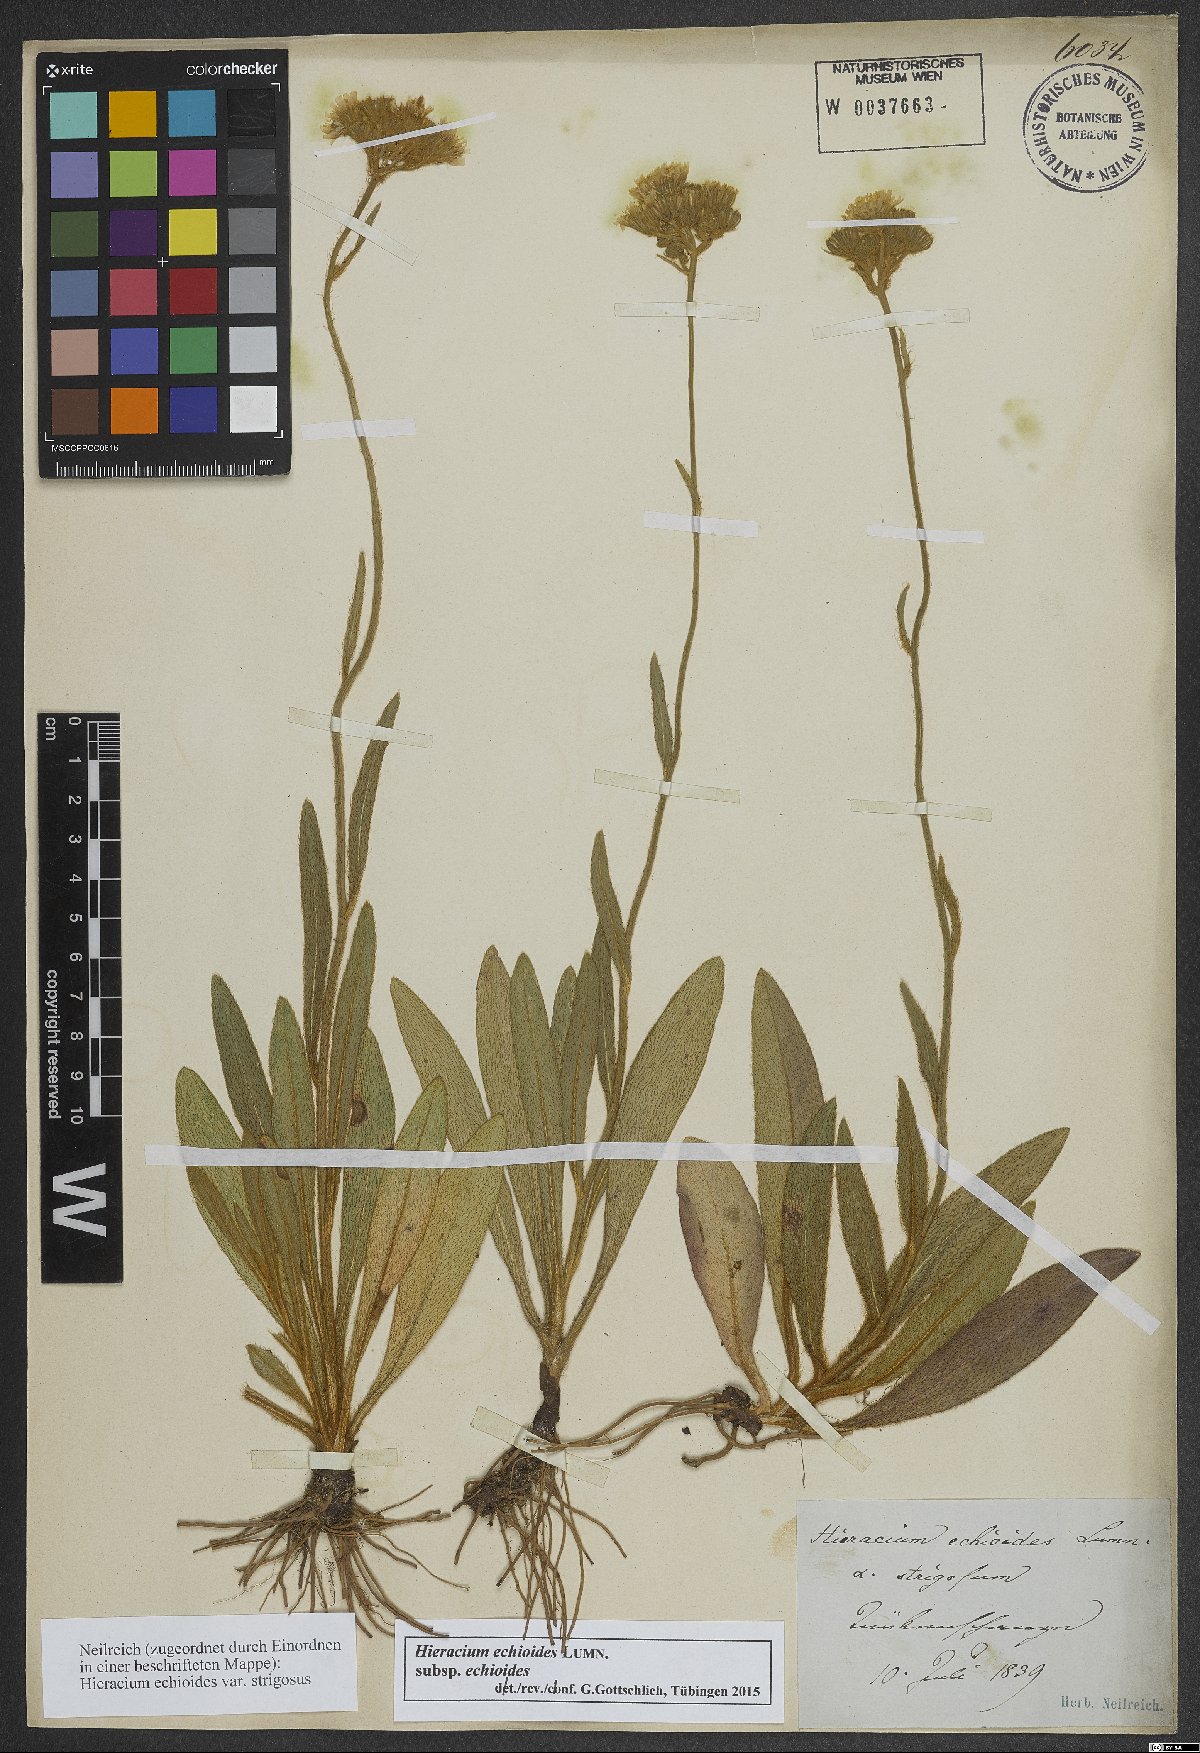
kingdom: Plantae
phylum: Tracheophyta
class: Magnoliopsida
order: Asterales
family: Asteraceae
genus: Pilosella
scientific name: Pilosella echioides
